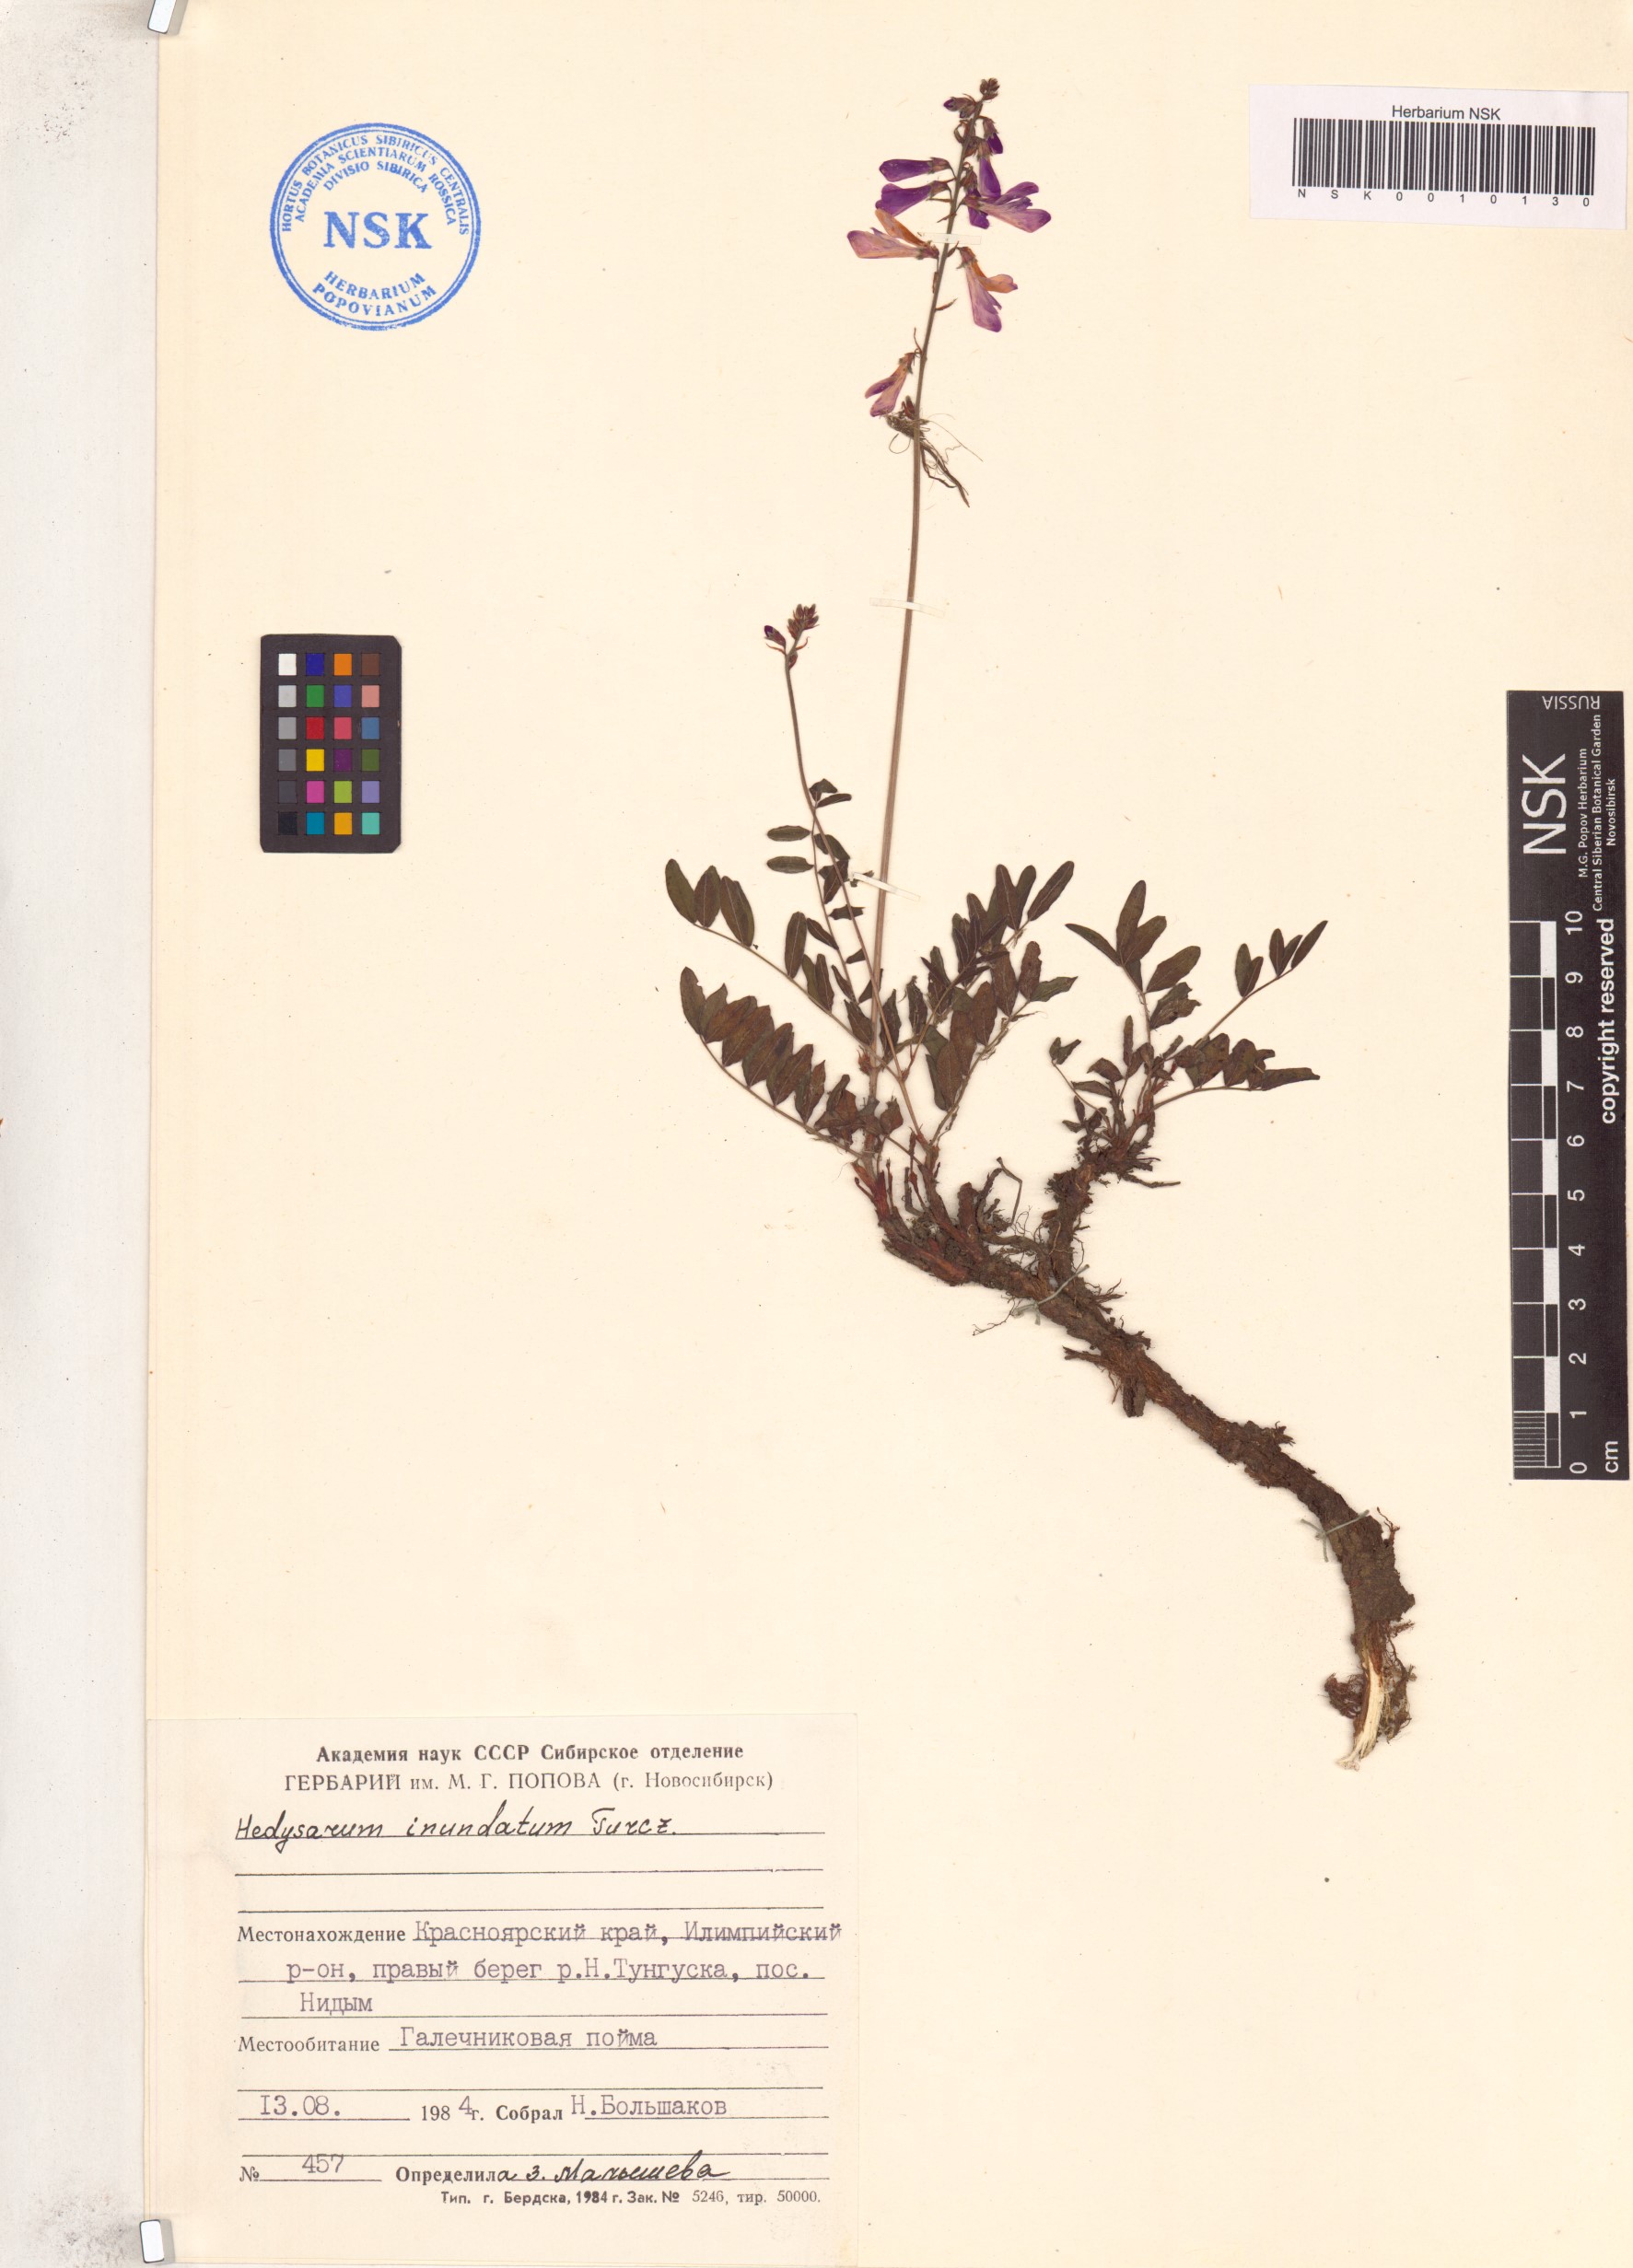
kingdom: Plantae
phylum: Tracheophyta
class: Magnoliopsida
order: Fabales
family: Fabaceae
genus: Hedysarum
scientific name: Hedysarum inundatum
